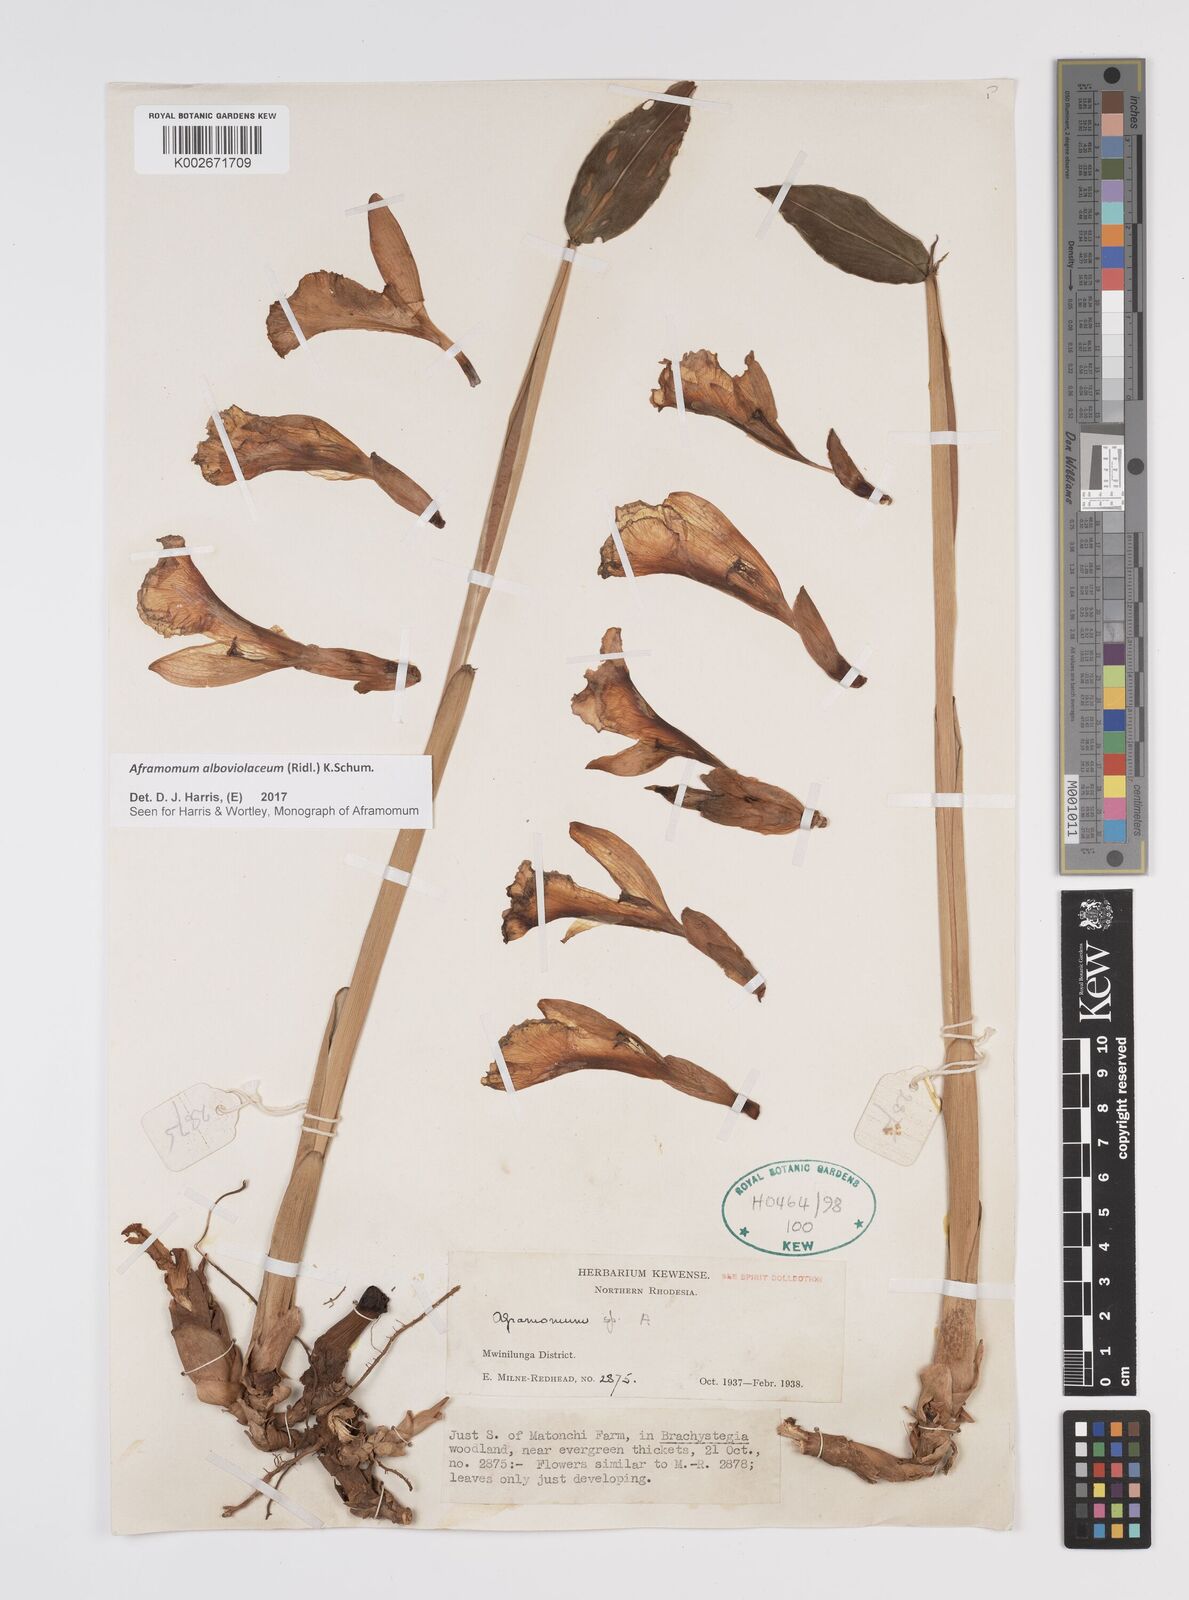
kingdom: Plantae
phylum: Tracheophyta
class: Liliopsida
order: Zingiberales
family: Zingiberaceae
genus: Aframomum
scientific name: Aframomum alboviolaceum
